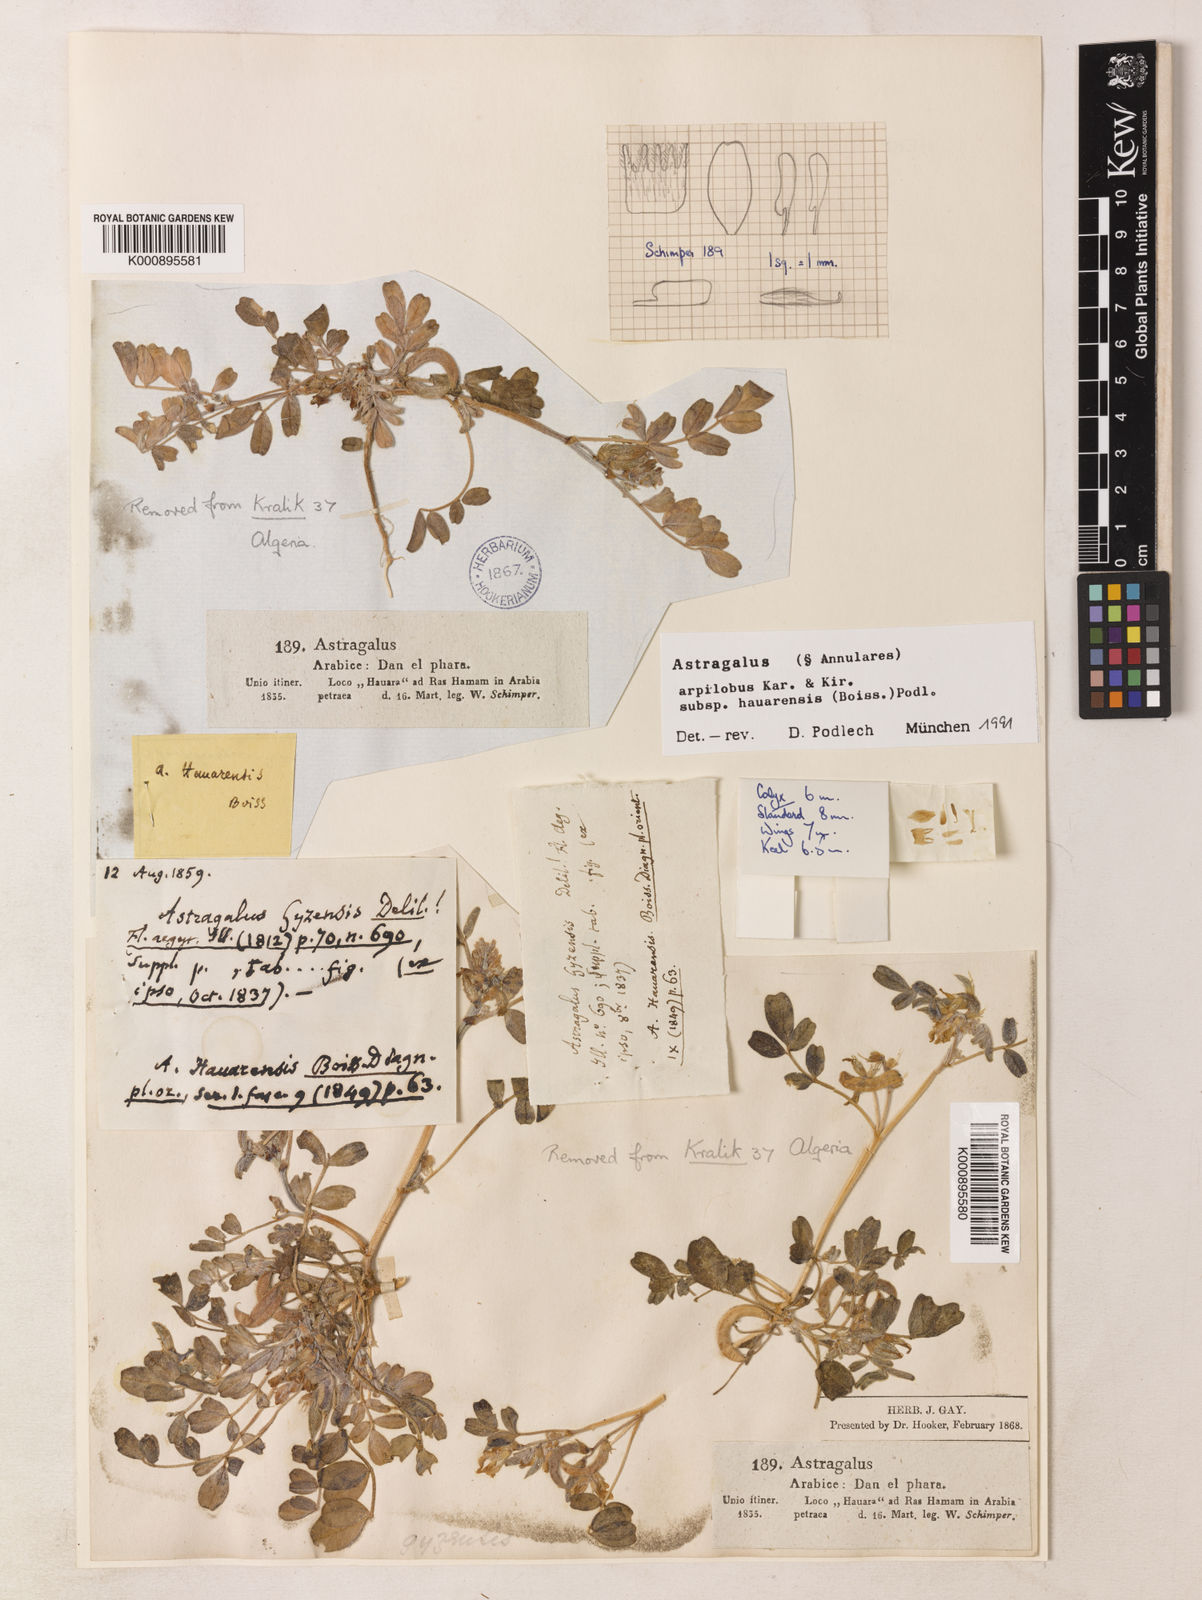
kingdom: Plantae
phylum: Tracheophyta
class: Magnoliopsida
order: Fabales
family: Fabaceae
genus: Astragalus
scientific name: Astragalus annularis
